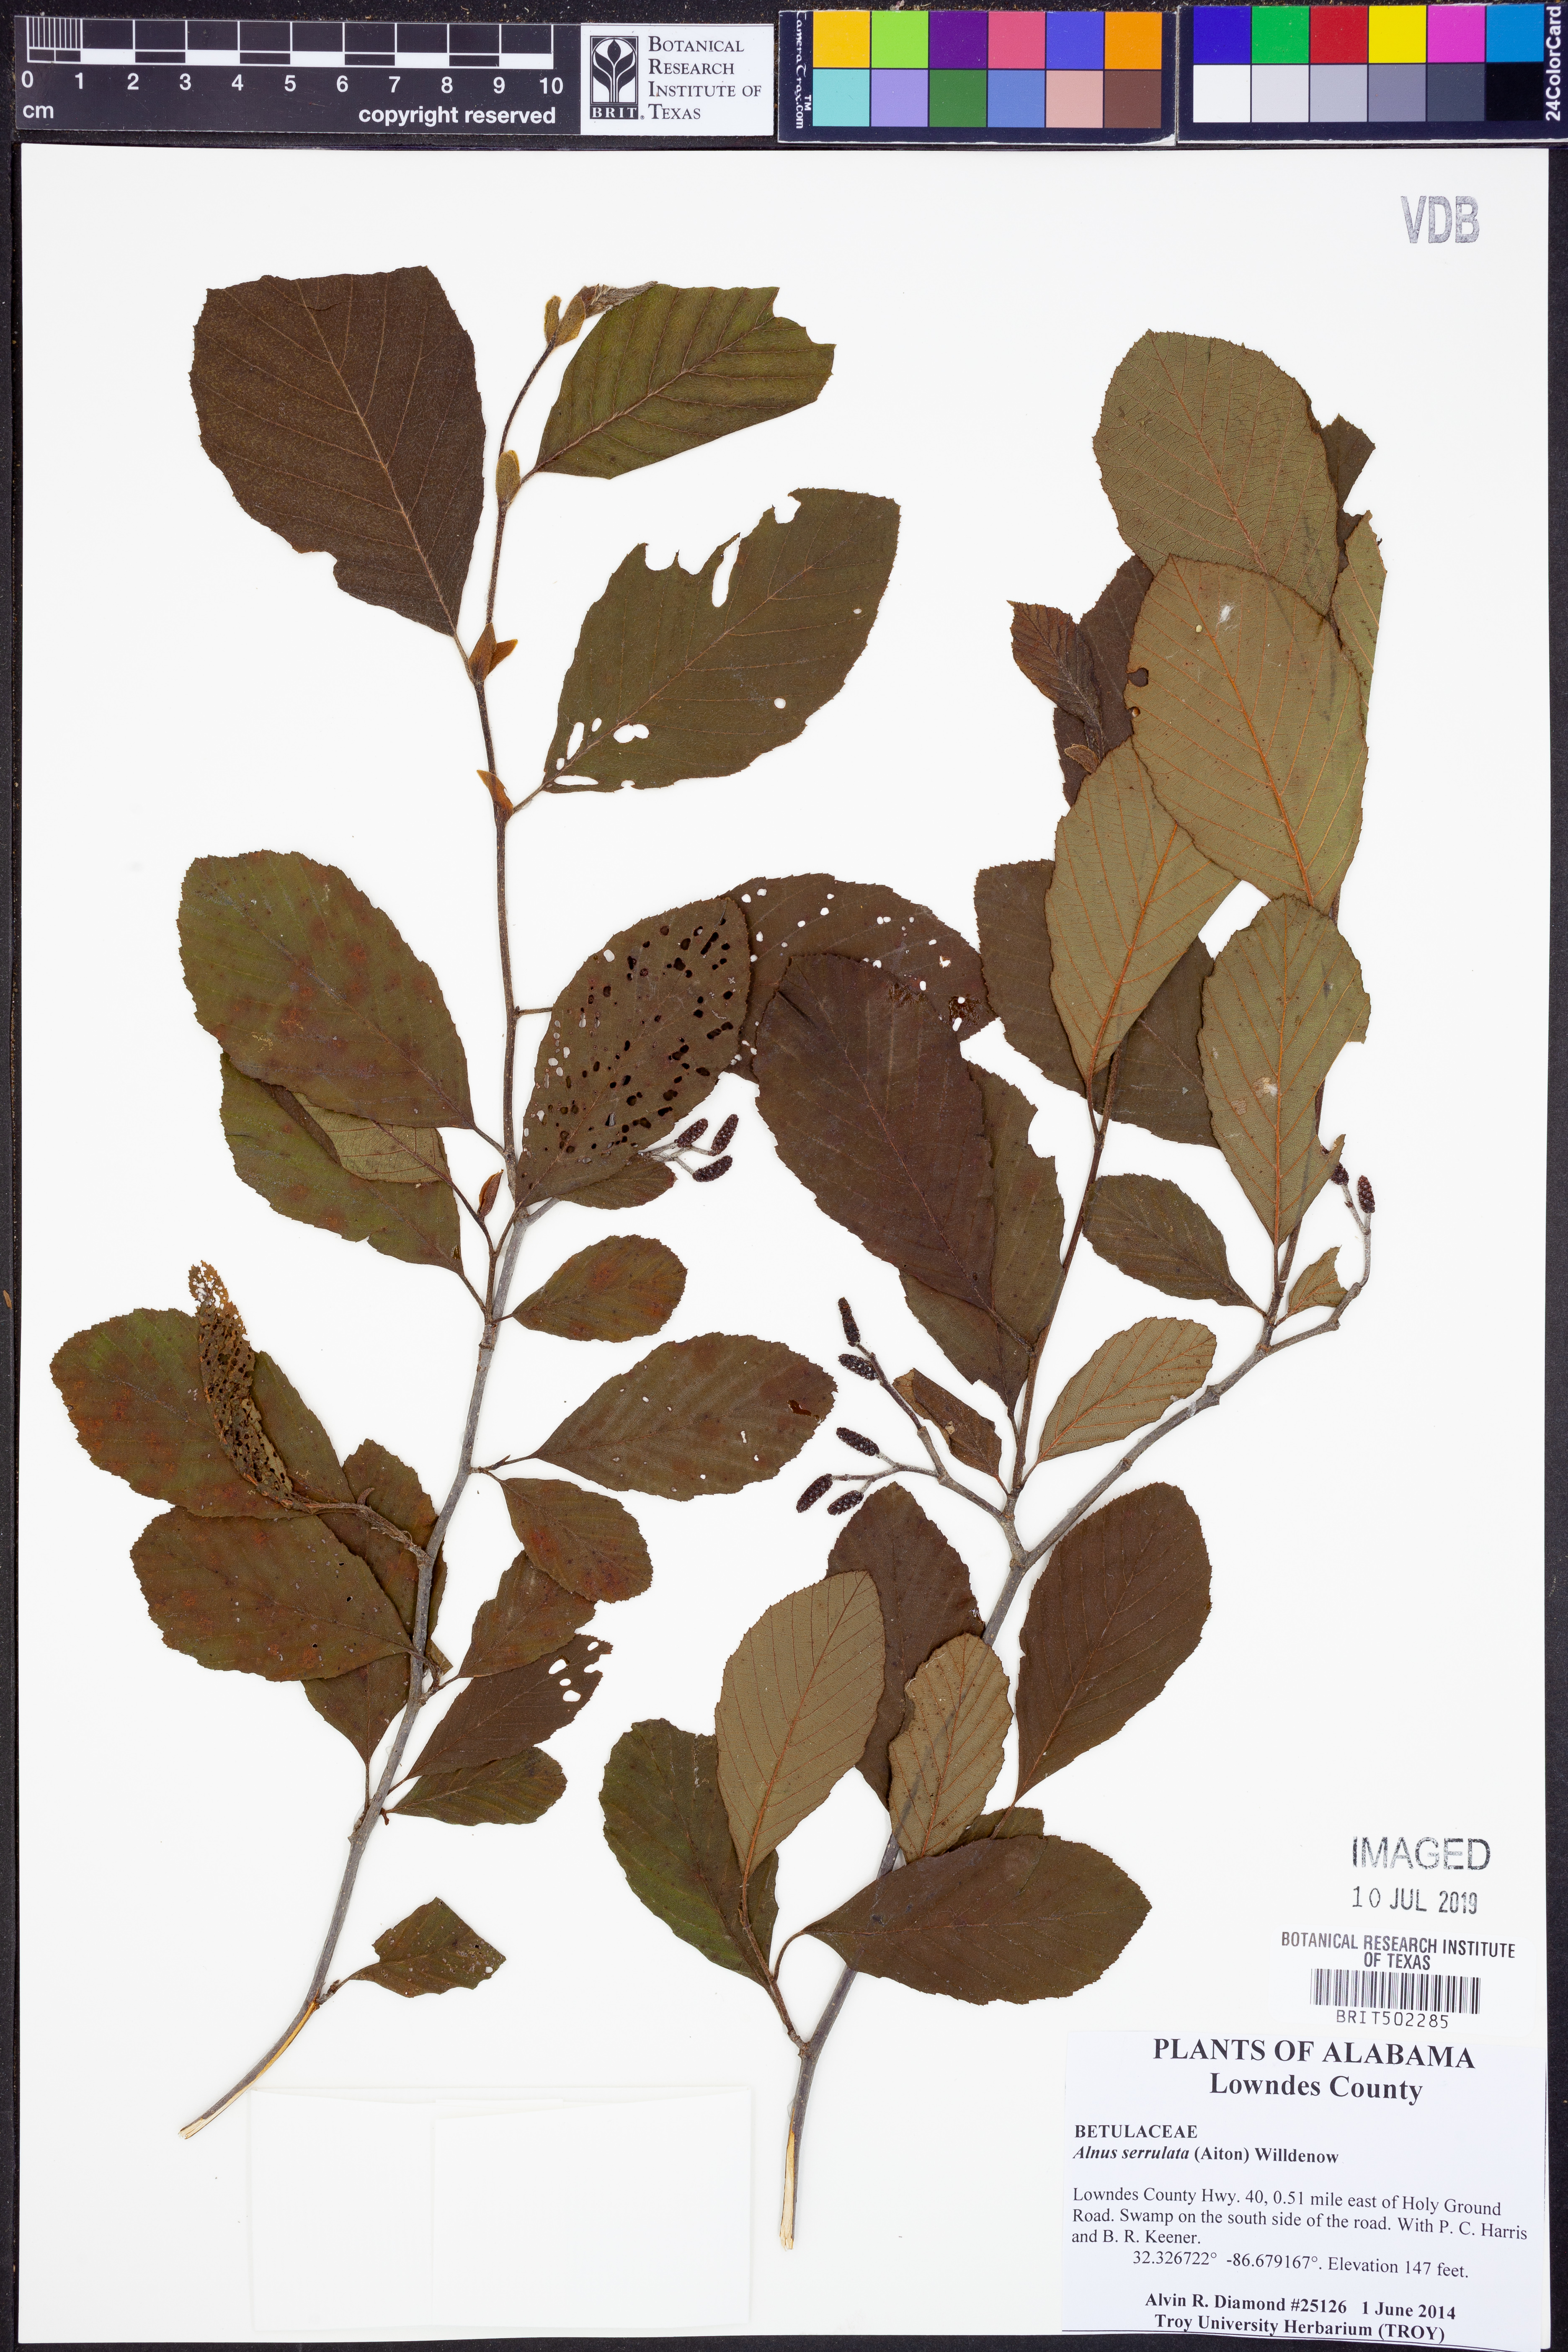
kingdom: Plantae
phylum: Tracheophyta
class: Magnoliopsida
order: Fagales
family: Betulaceae
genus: Alnus
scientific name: Alnus serrulata
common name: Hazel alder
